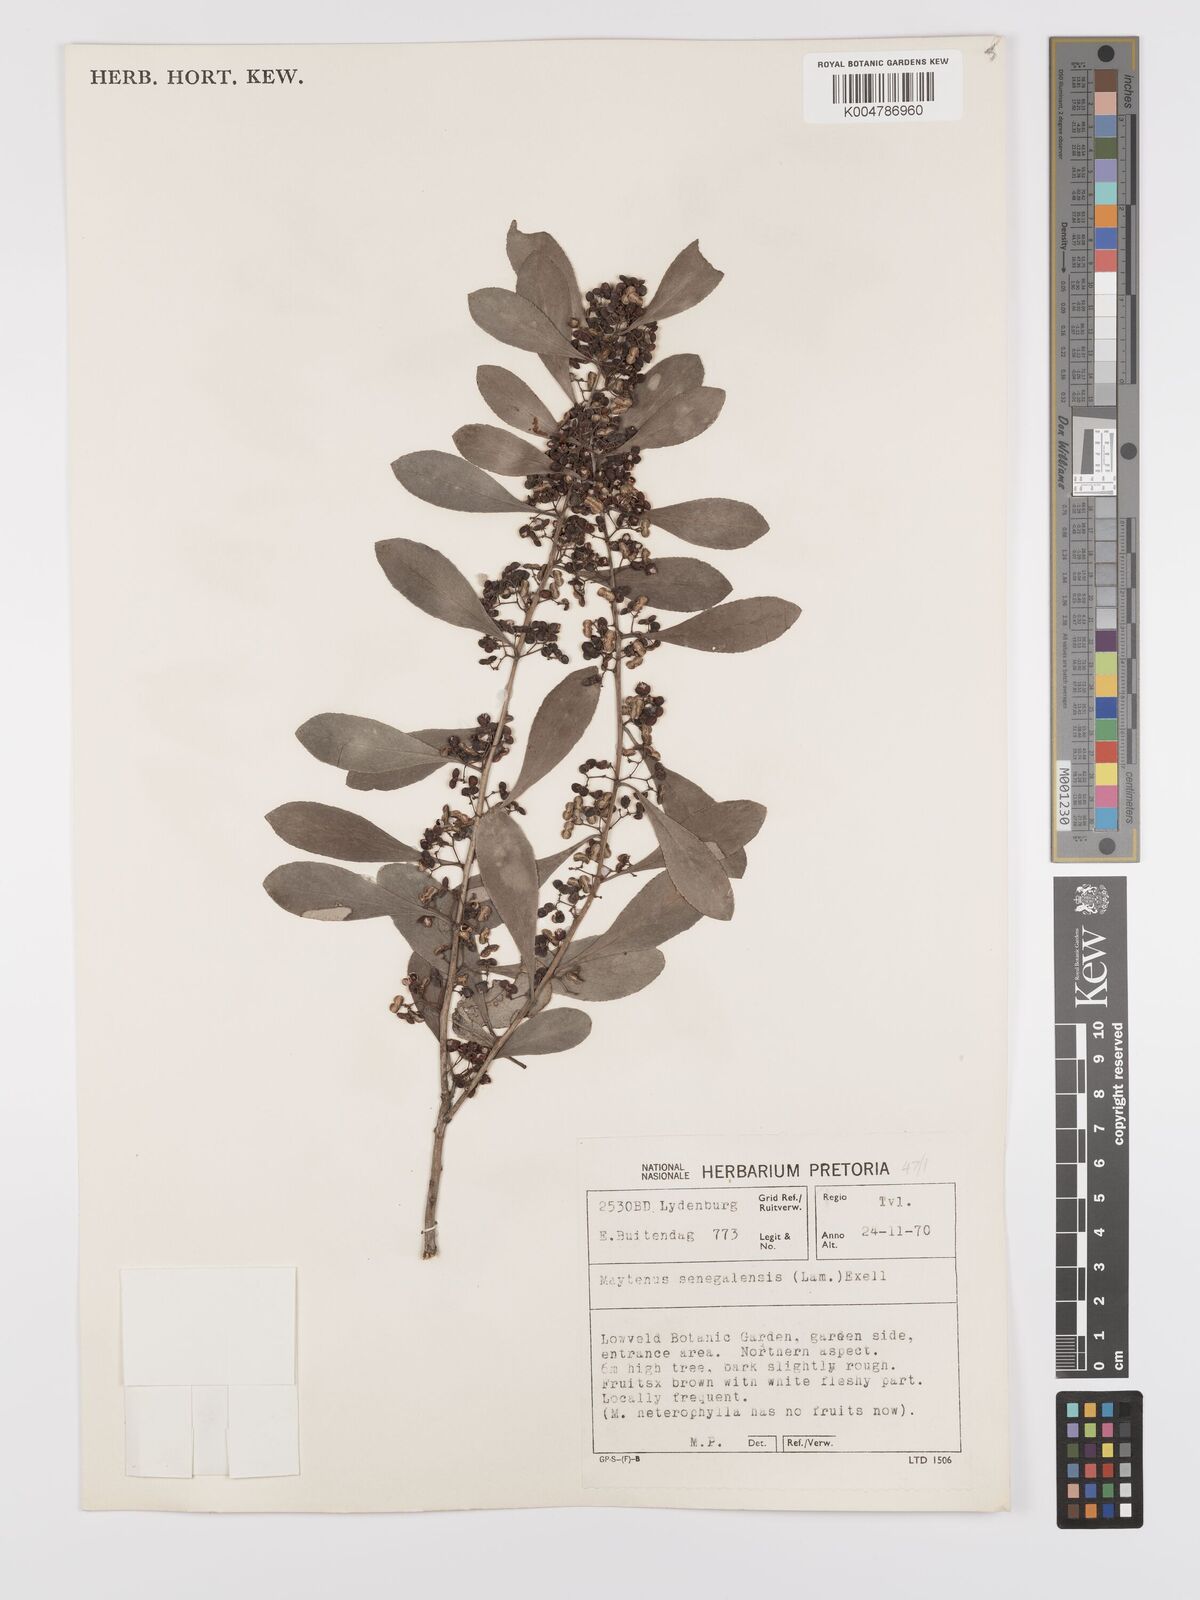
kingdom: Plantae
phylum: Tracheophyta
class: Magnoliopsida
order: Celastrales
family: Celastraceae
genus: Gymnosporia
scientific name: Gymnosporia senegalensis
